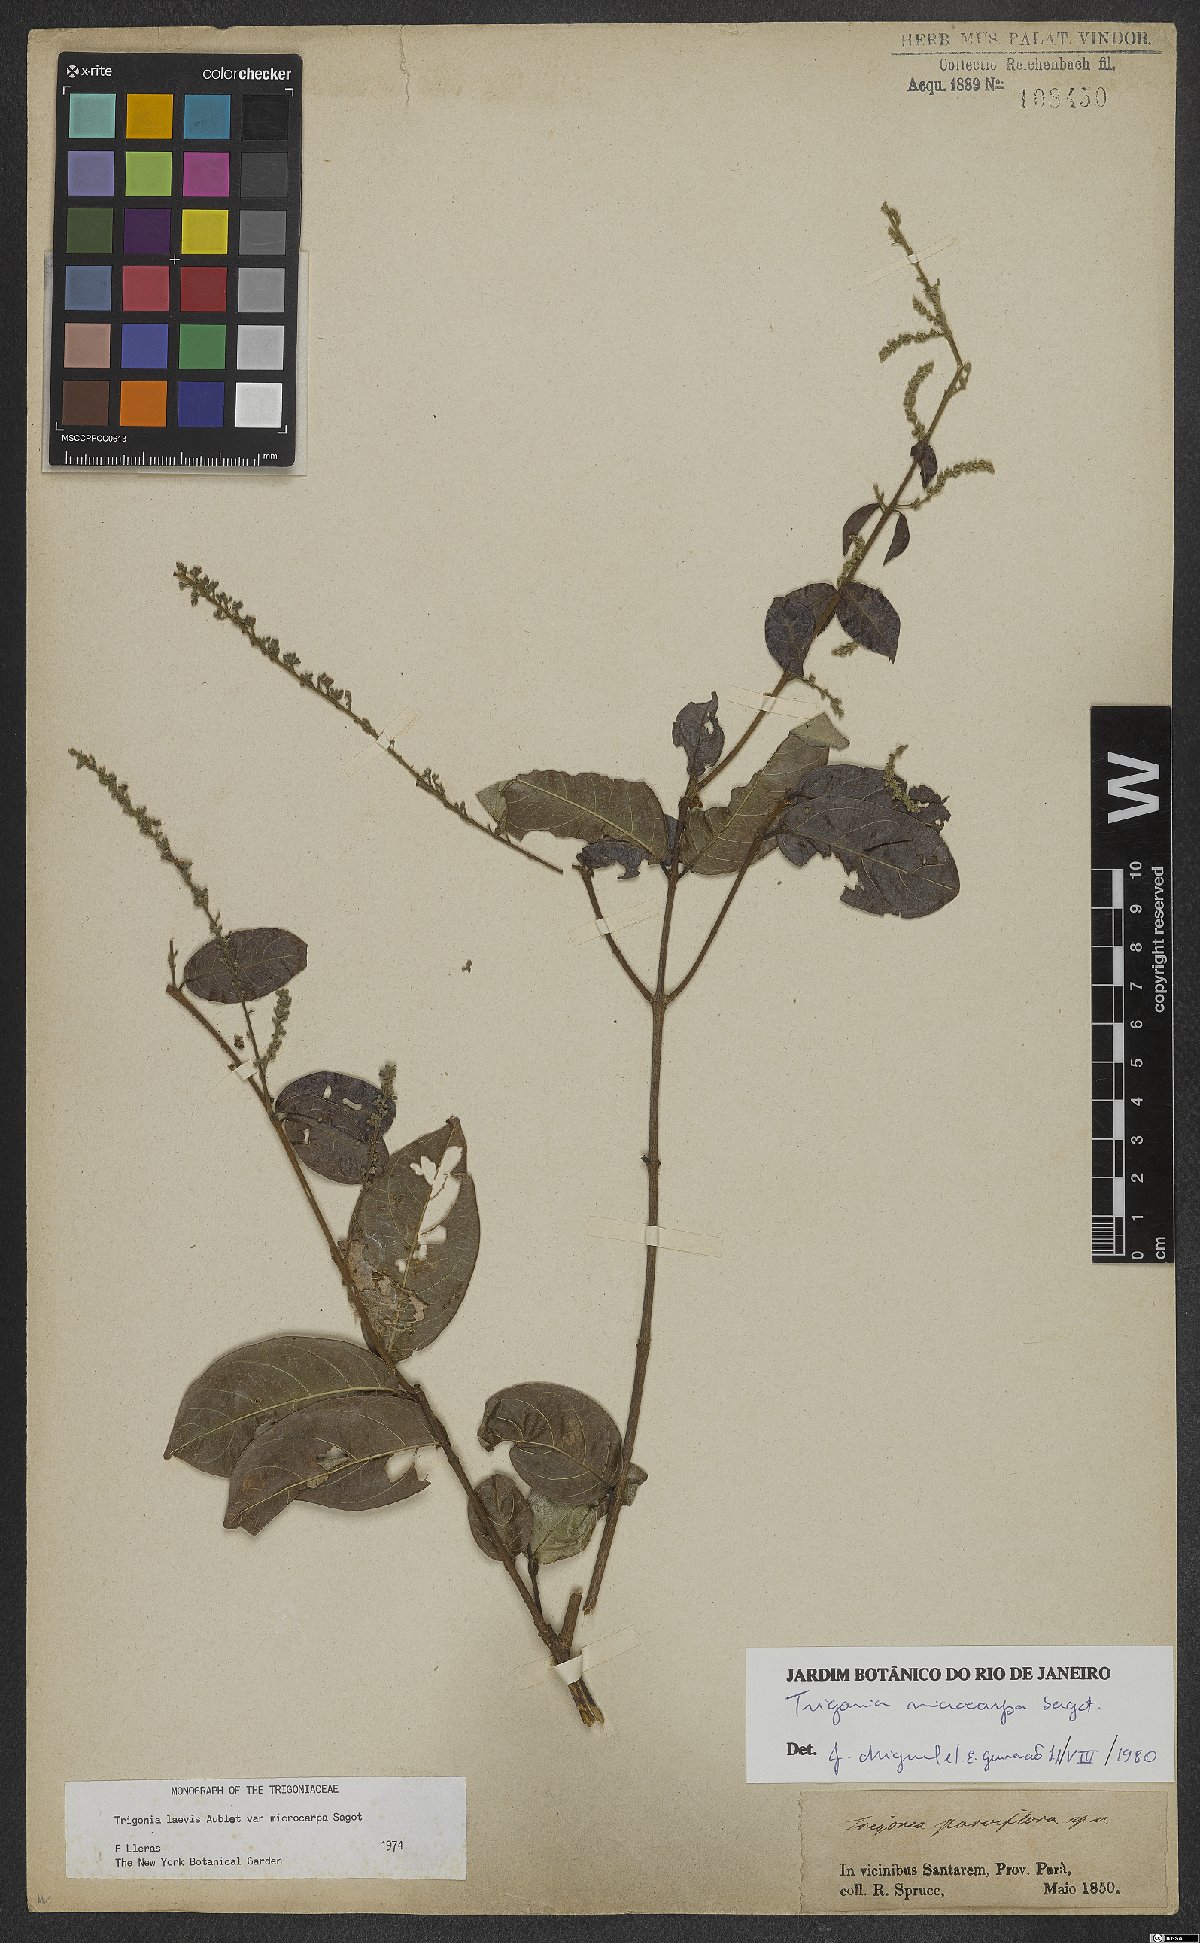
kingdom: Plantae
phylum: Tracheophyta
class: Magnoliopsida
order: Malpighiales
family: Trigoniaceae
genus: Trigonia
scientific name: Trigonia microcarpa
